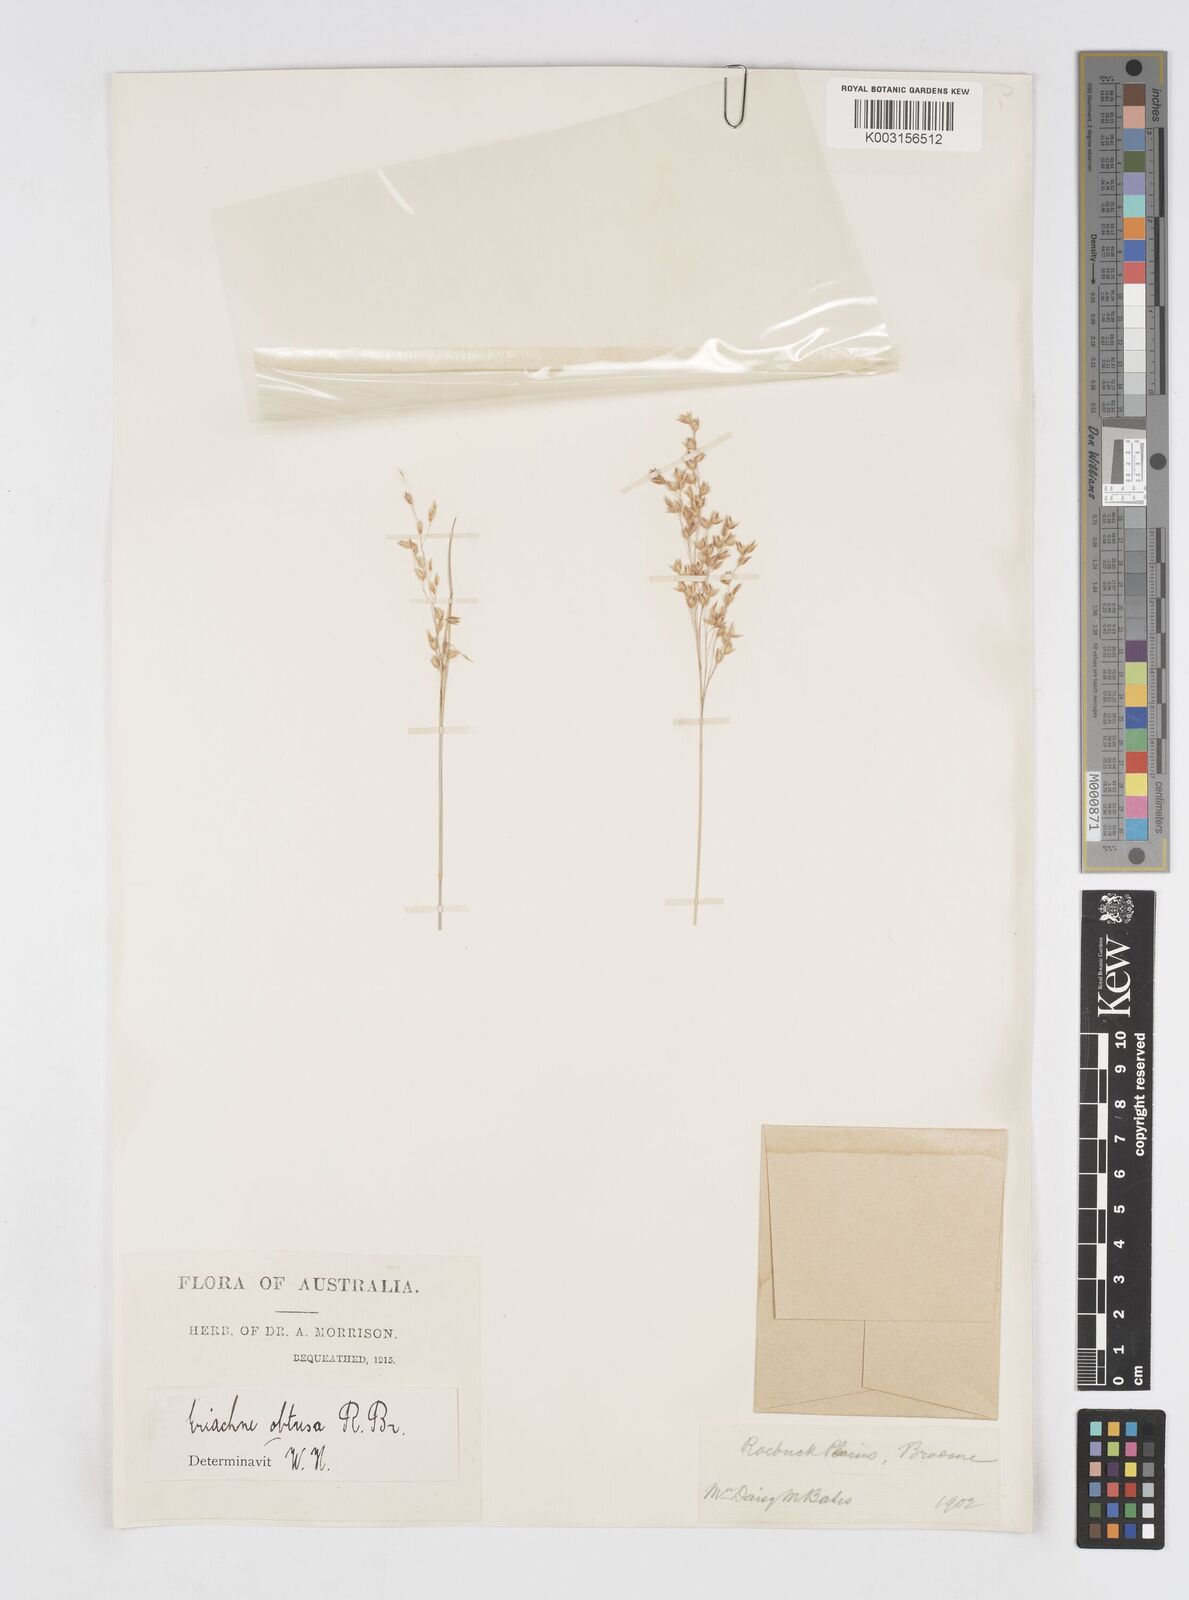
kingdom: Plantae
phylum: Tracheophyta
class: Liliopsida
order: Poales
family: Poaceae
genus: Eriachne
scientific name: Eriachne obtusa
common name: Northern wanderrie grass
